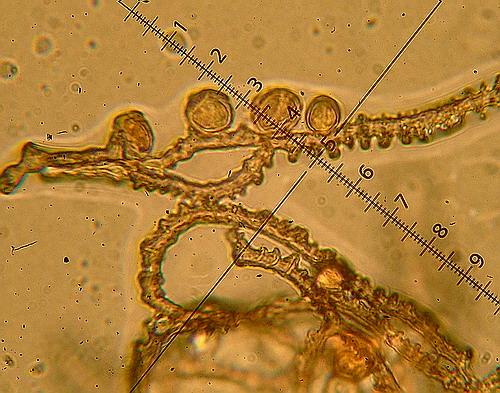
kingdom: Protozoa
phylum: Mycetozoa
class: Myxomycetes
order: Trichiales
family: Arcyriaceae
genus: Arcyria
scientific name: Arcyria denudata
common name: karminrød skålsvøb
